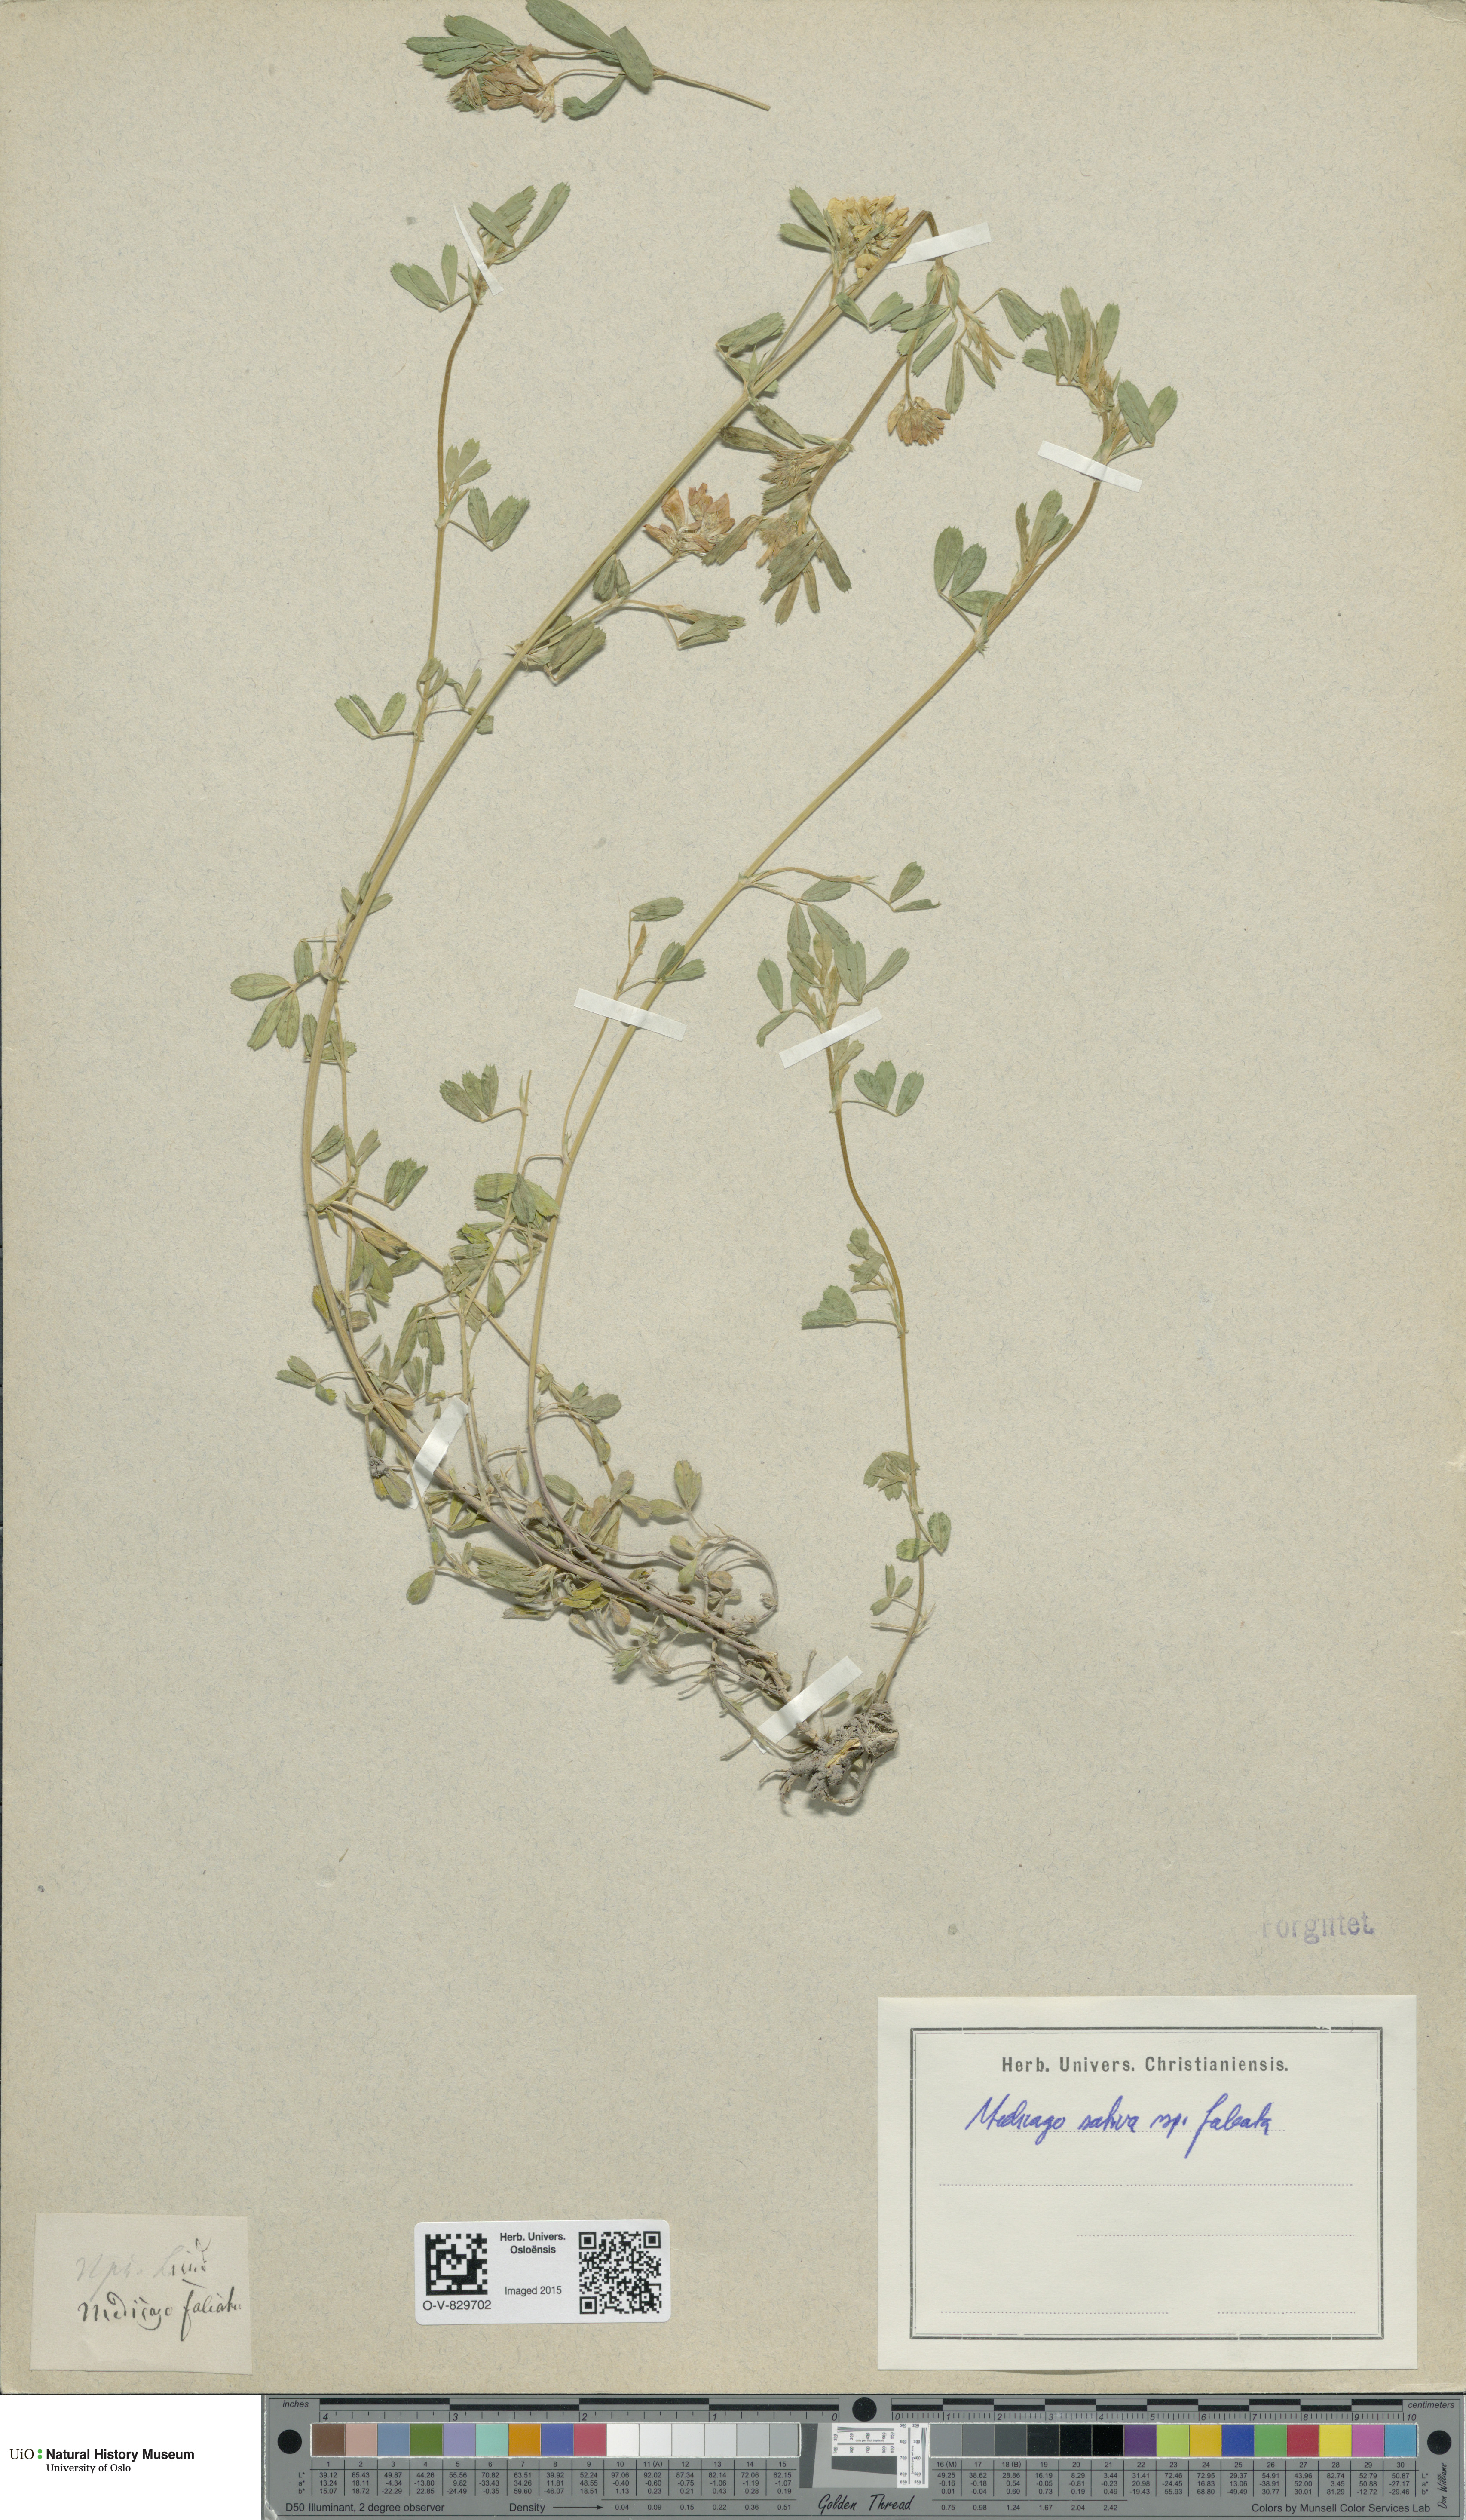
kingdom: Plantae
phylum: Tracheophyta
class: Magnoliopsida
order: Fabales
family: Fabaceae
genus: Medicago
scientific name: Medicago falcata
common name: Sickle medick
